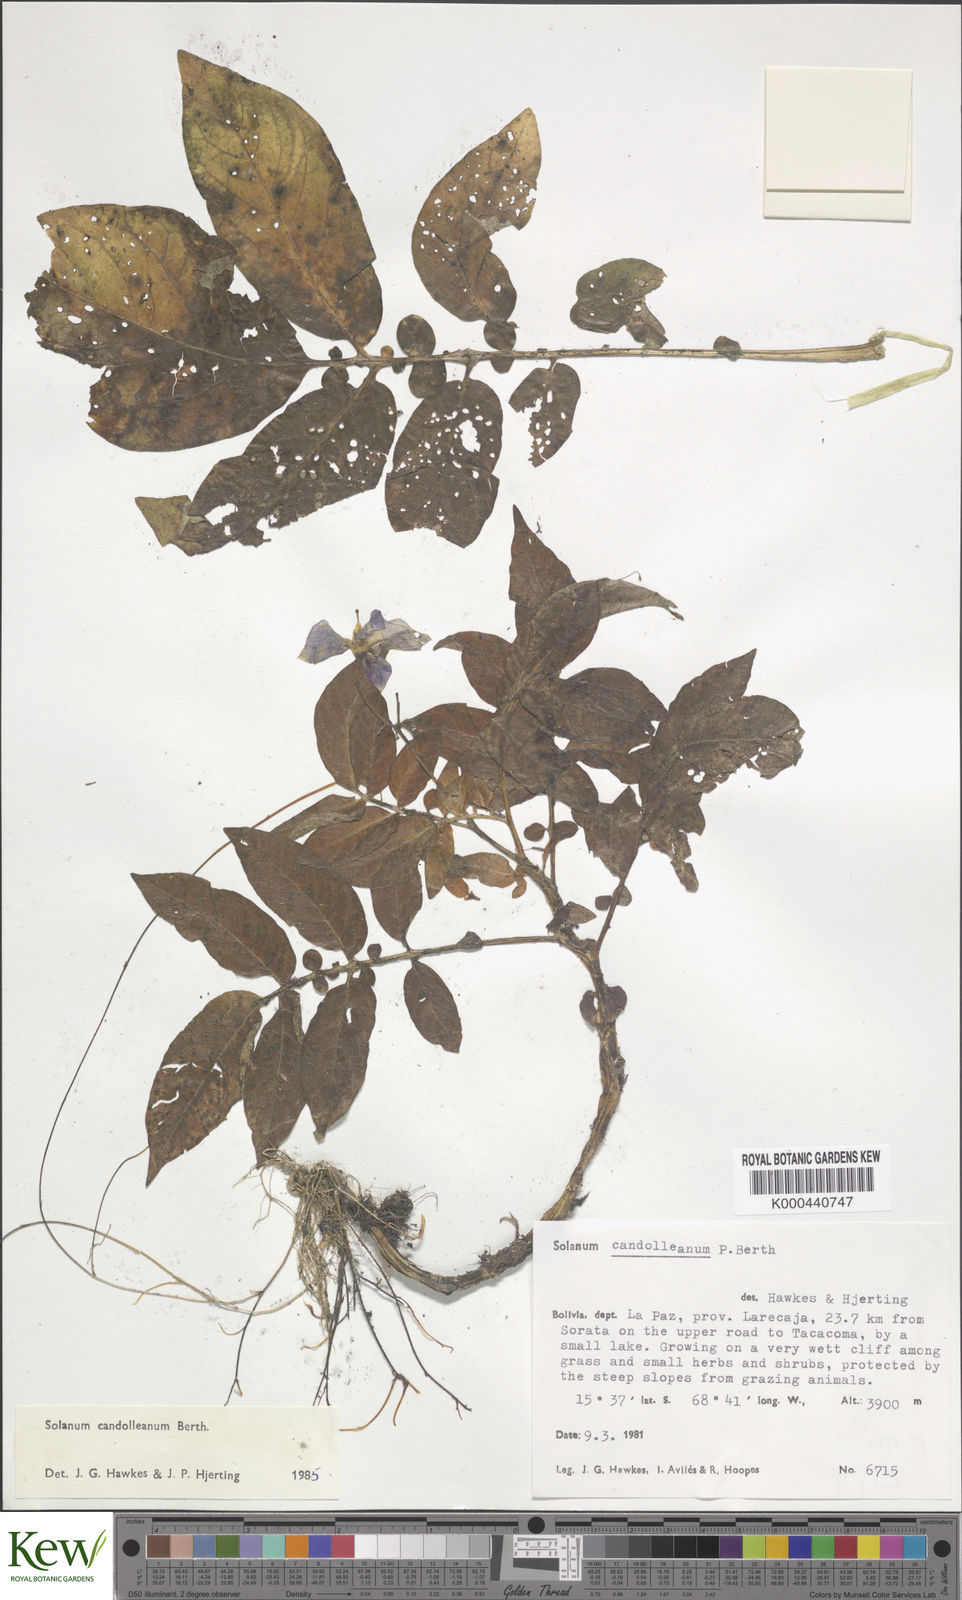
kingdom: Plantae
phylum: Tracheophyta
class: Magnoliopsida
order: Solanales
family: Solanaceae
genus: Solanum
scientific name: Solanum brevicaule
